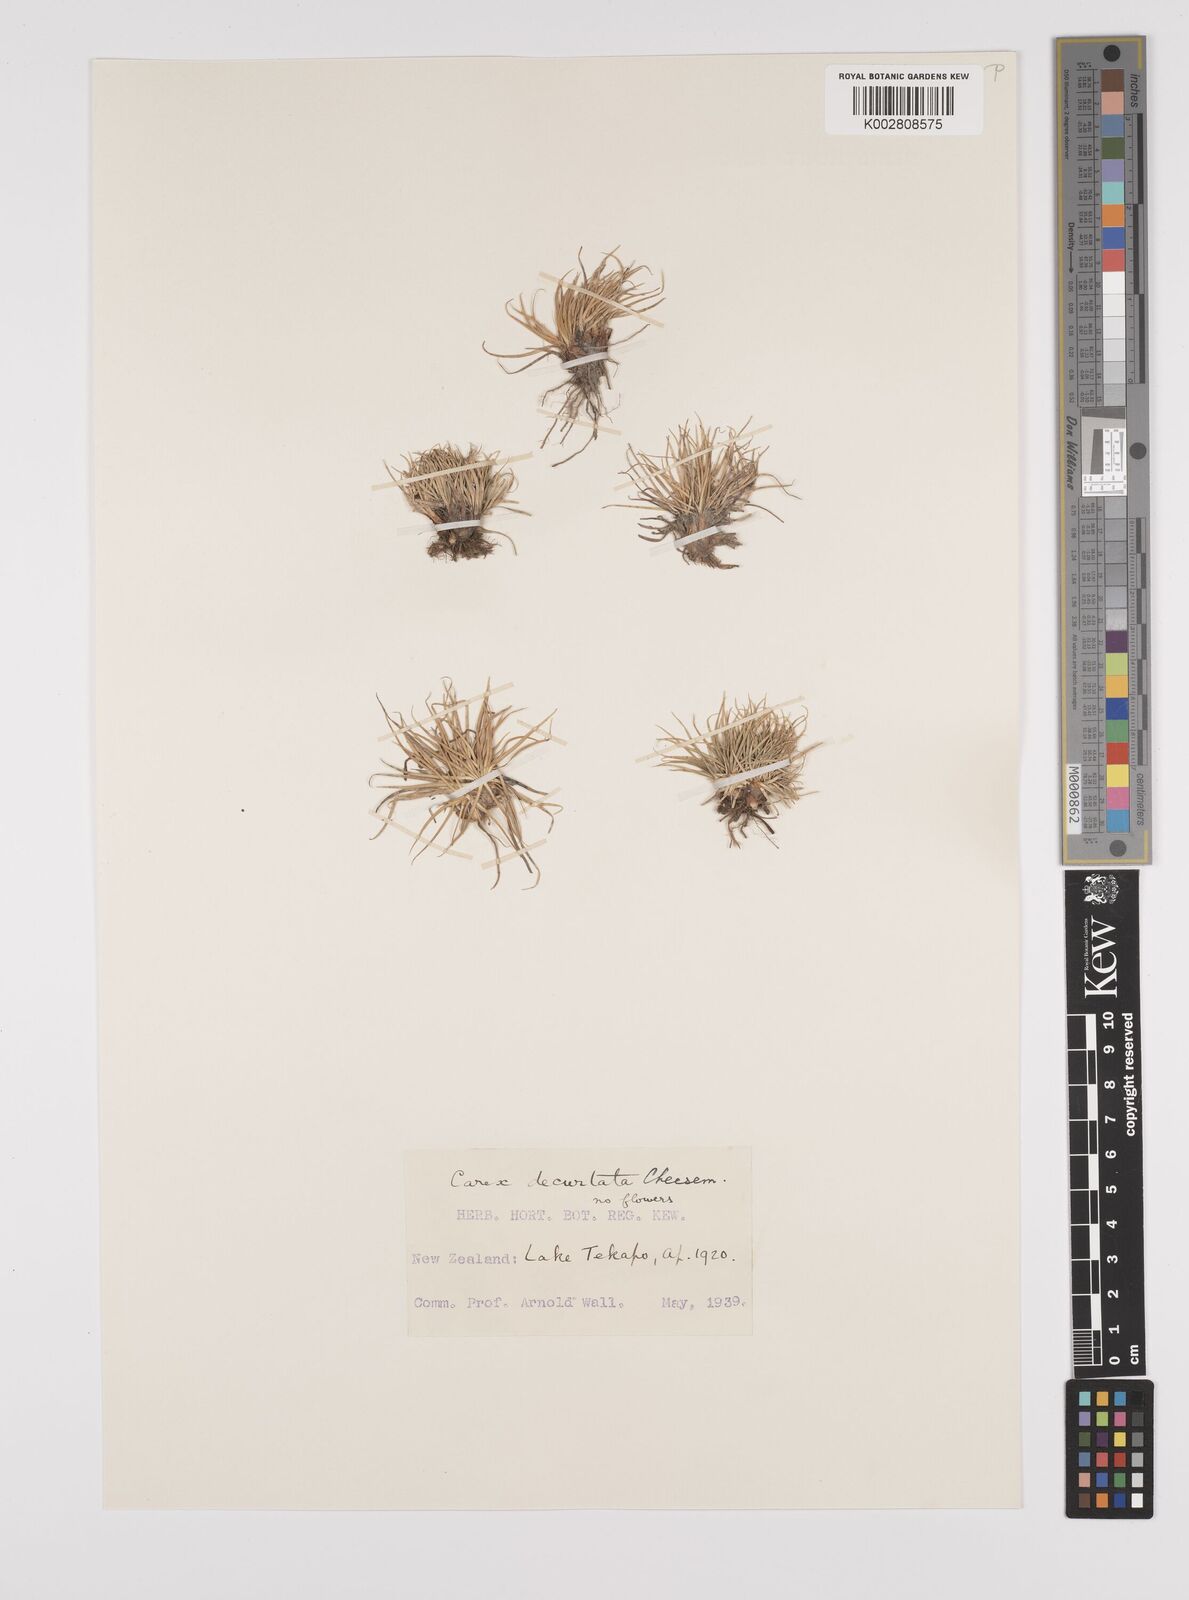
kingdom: Plantae
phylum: Tracheophyta
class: Liliopsida
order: Poales
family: Cyperaceae
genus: Carex
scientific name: Carex decurtata
